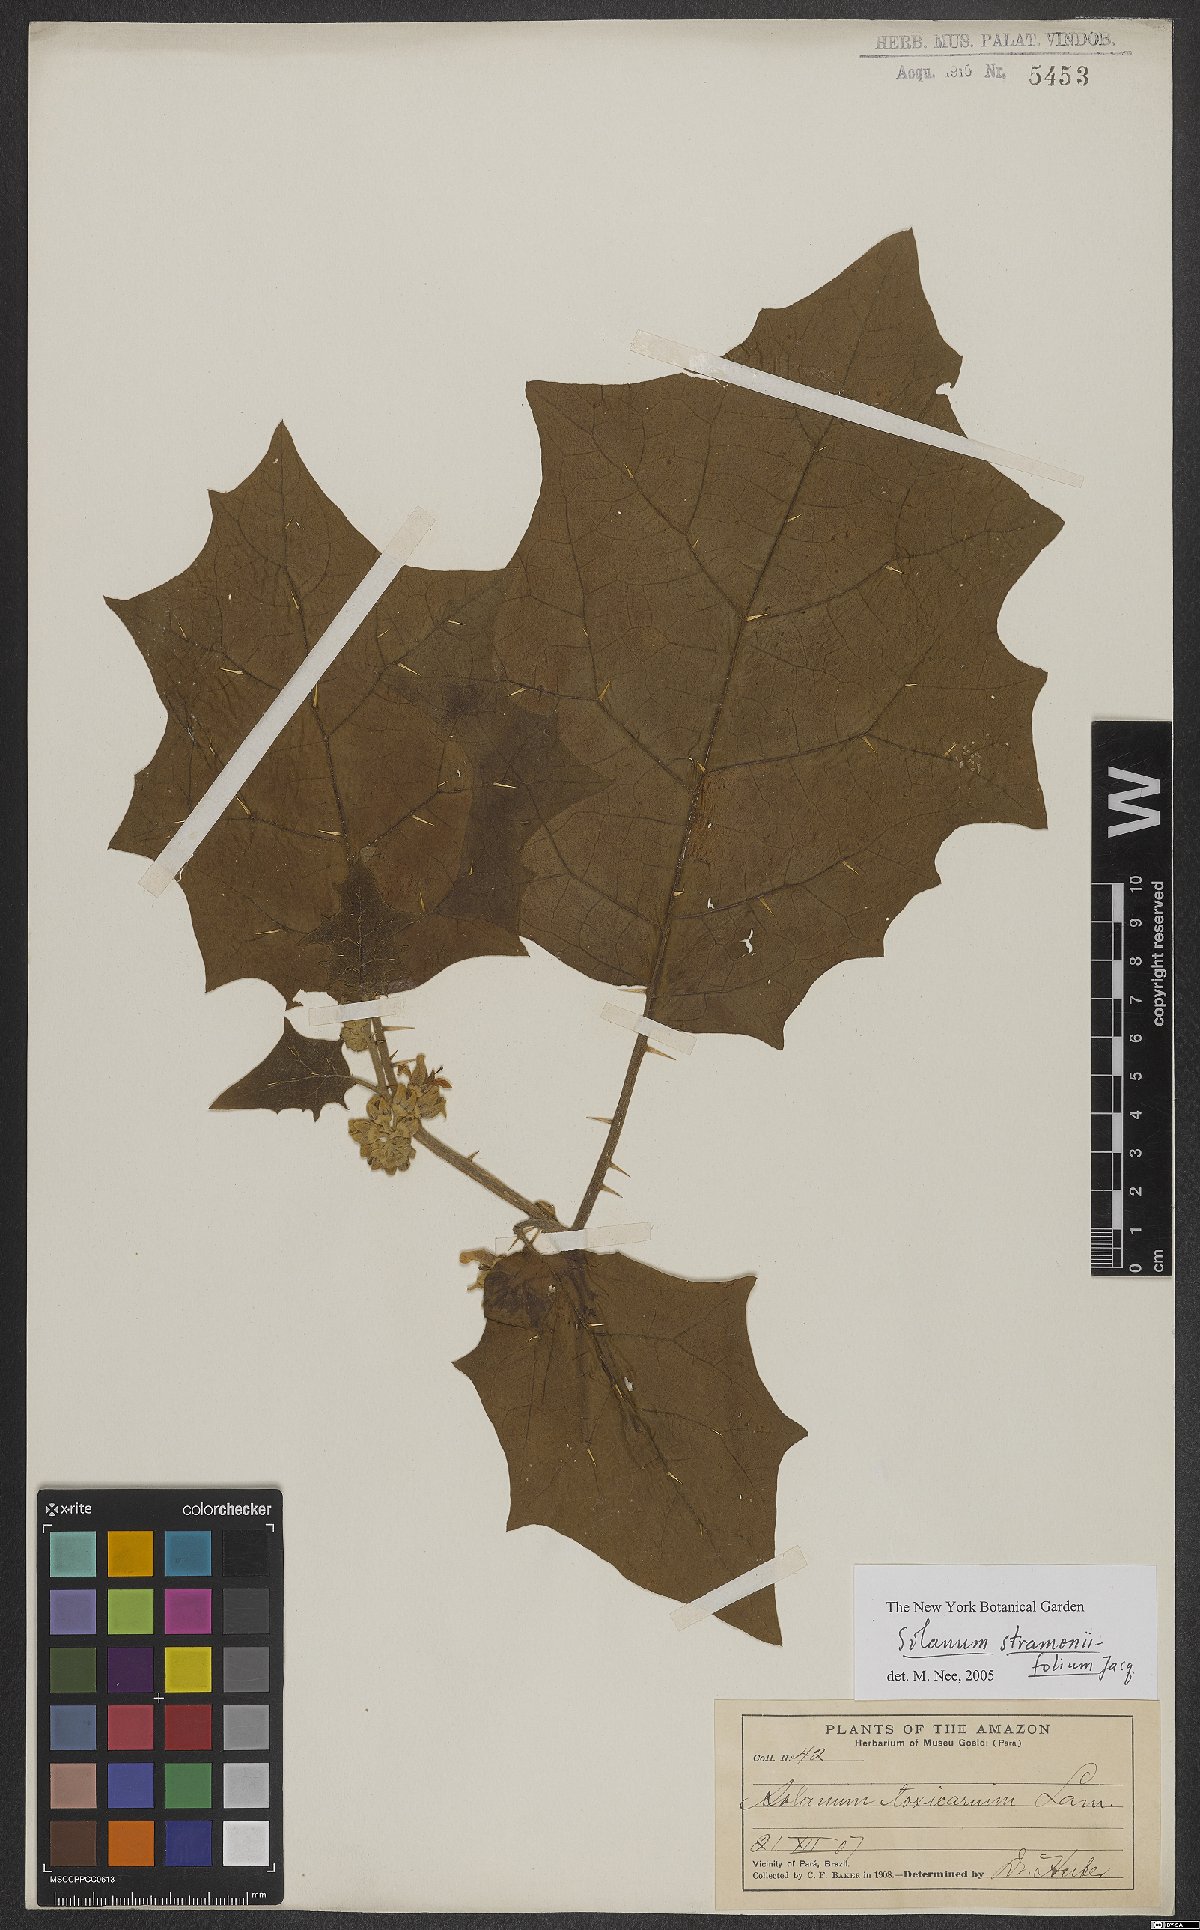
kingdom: Plantae
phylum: Tracheophyta
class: Magnoliopsida
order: Solanales
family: Solanaceae
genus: Solanum
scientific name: Solanum stramonifolium
